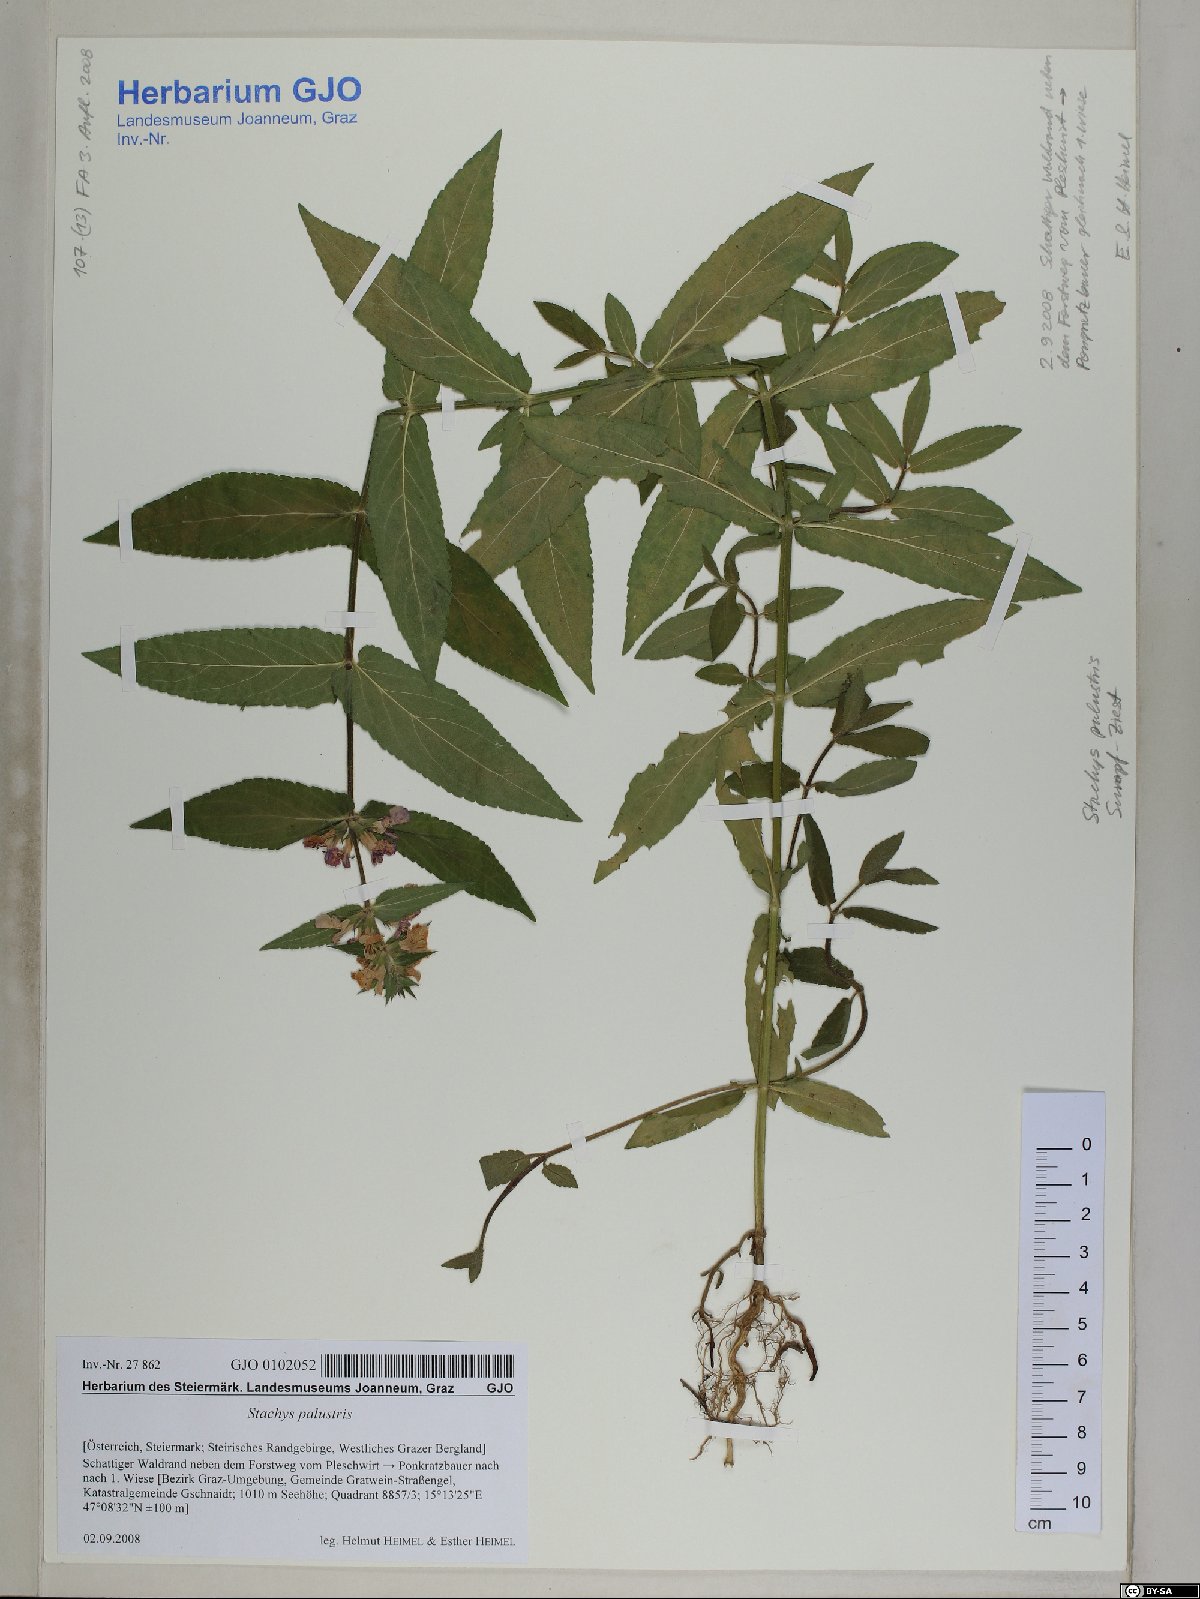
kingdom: Plantae
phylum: Tracheophyta
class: Magnoliopsida
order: Lamiales
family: Lamiaceae
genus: Stachys
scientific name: Stachys palustris
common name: Marsh woundwort
